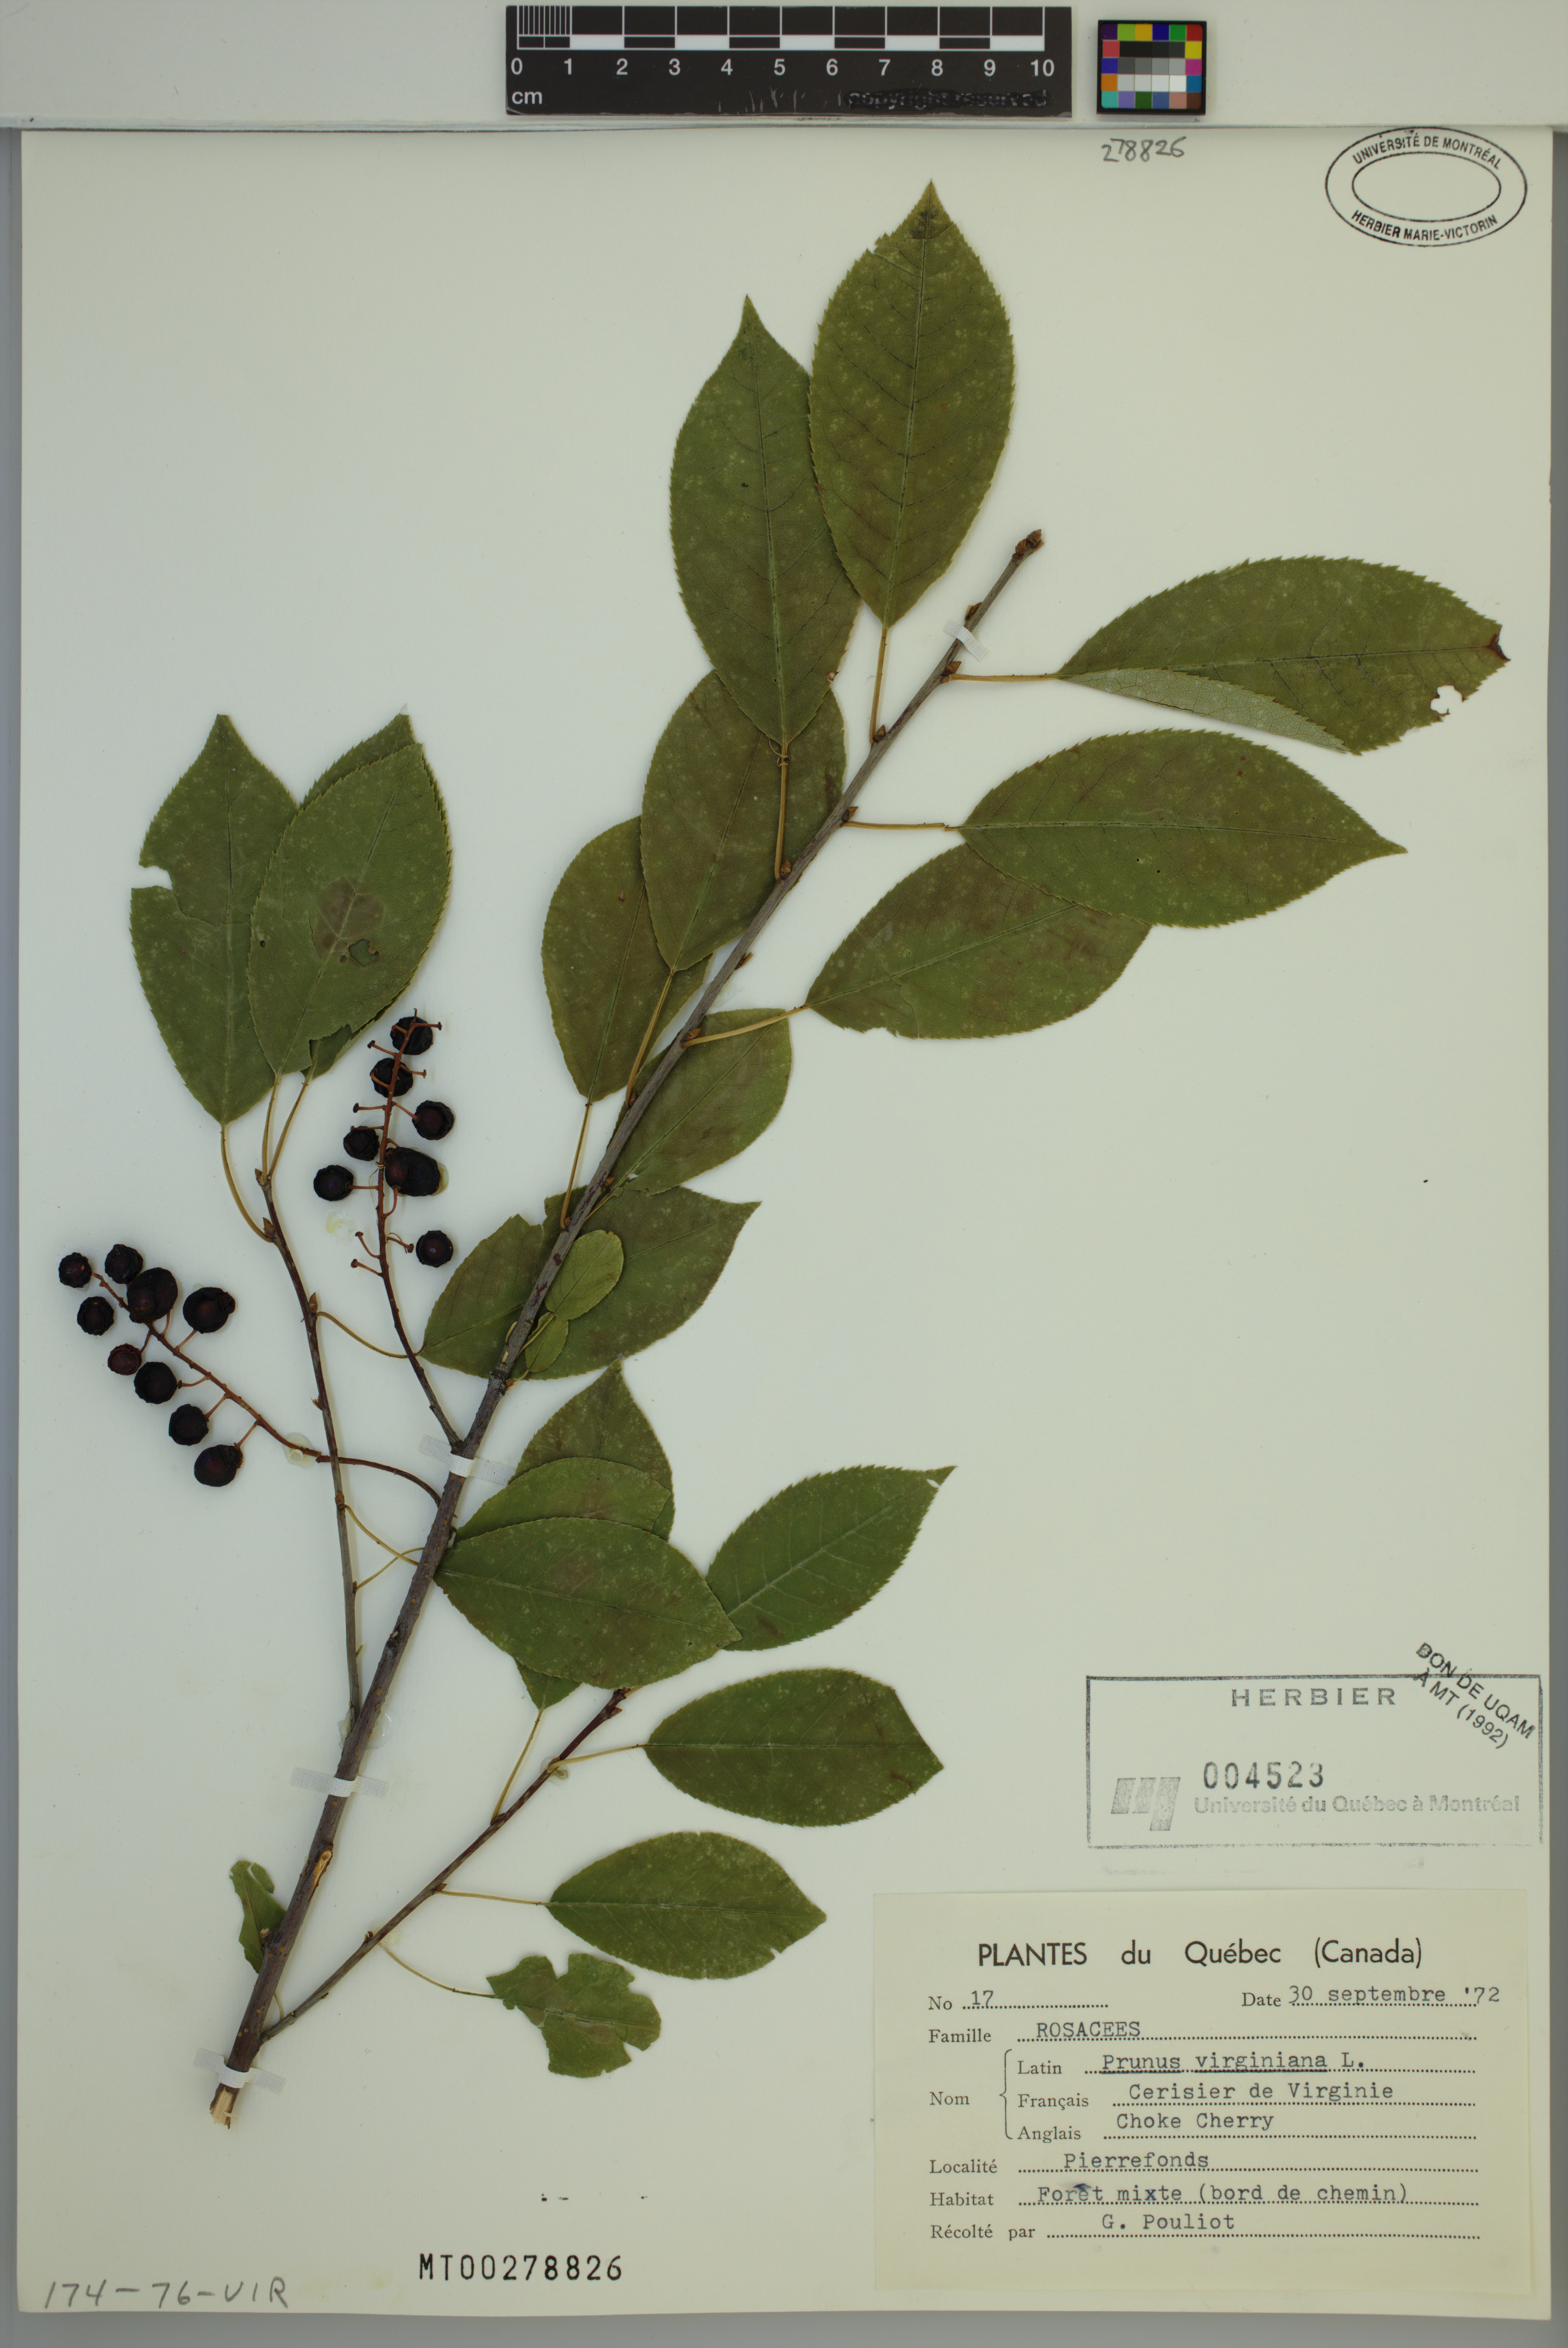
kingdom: Plantae
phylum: Tracheophyta
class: Magnoliopsida
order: Rosales
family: Rosaceae
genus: Prunus
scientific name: Prunus virginiana
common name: Chokecherry
